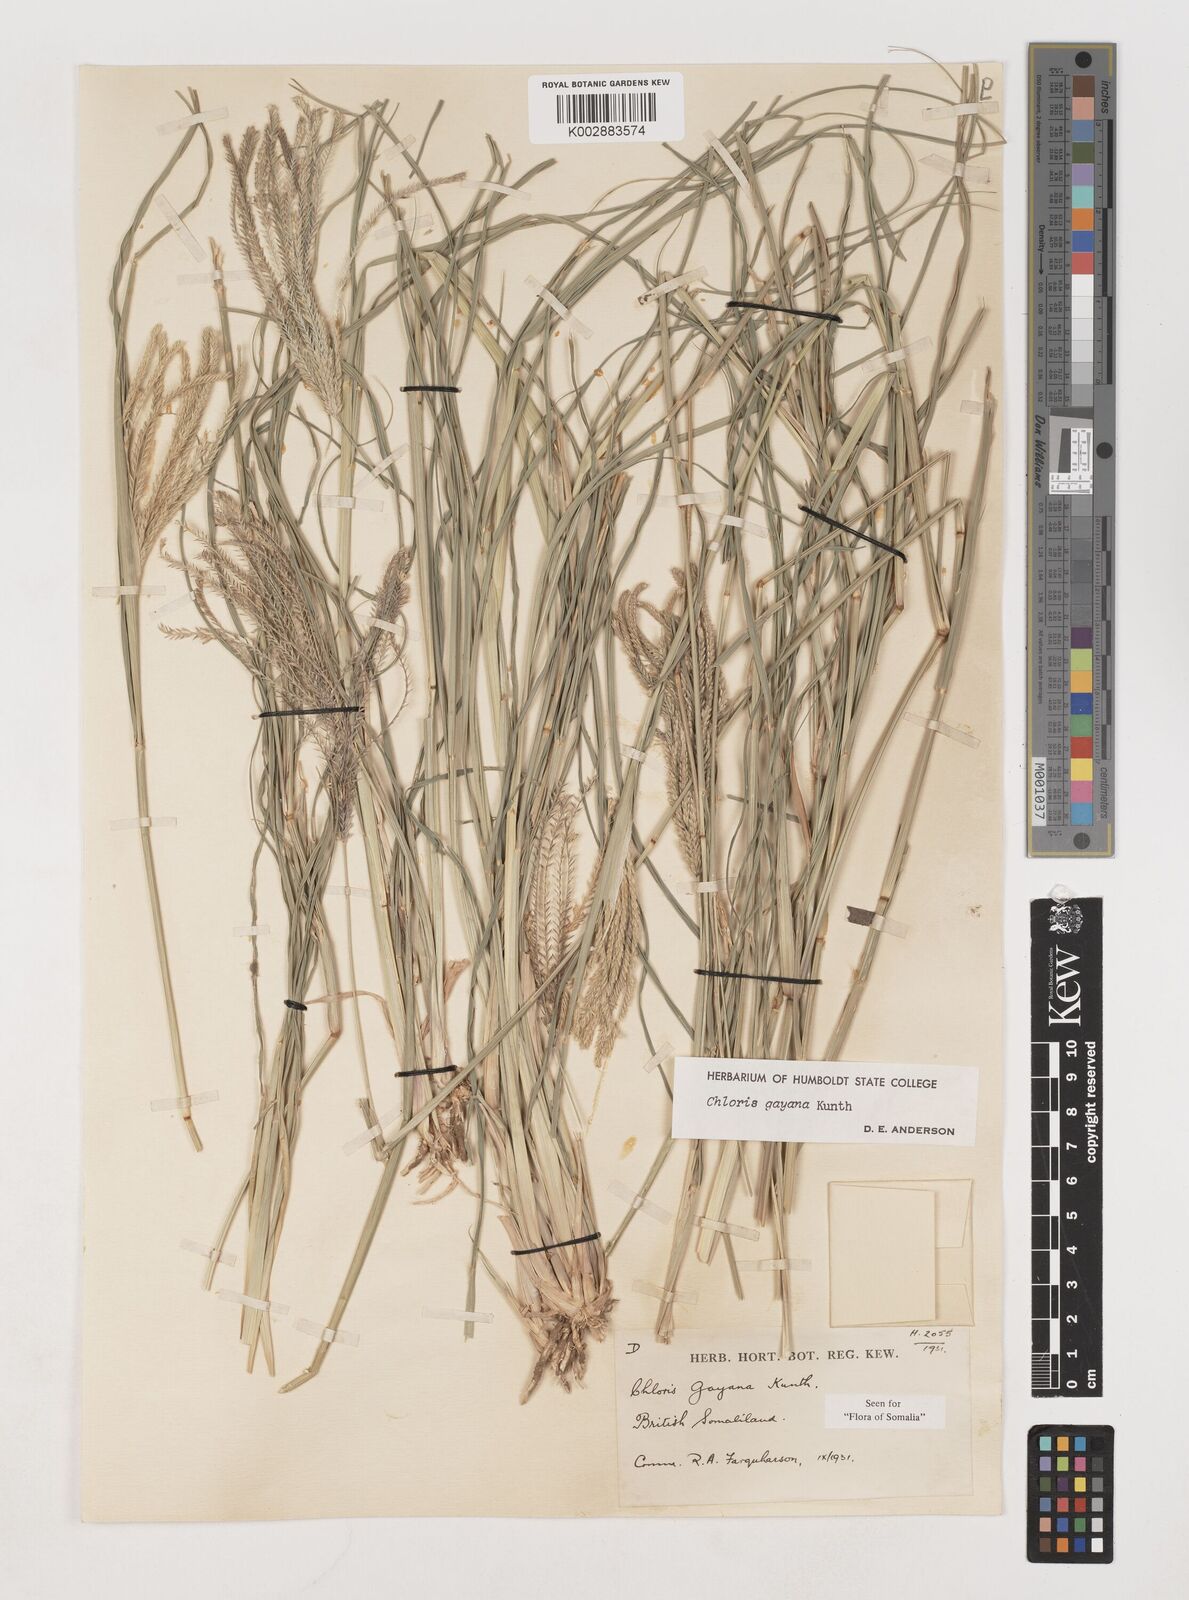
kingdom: Plantae
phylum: Tracheophyta
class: Liliopsida
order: Poales
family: Poaceae
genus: Chloris
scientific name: Chloris gayana
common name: Rhodes grass
